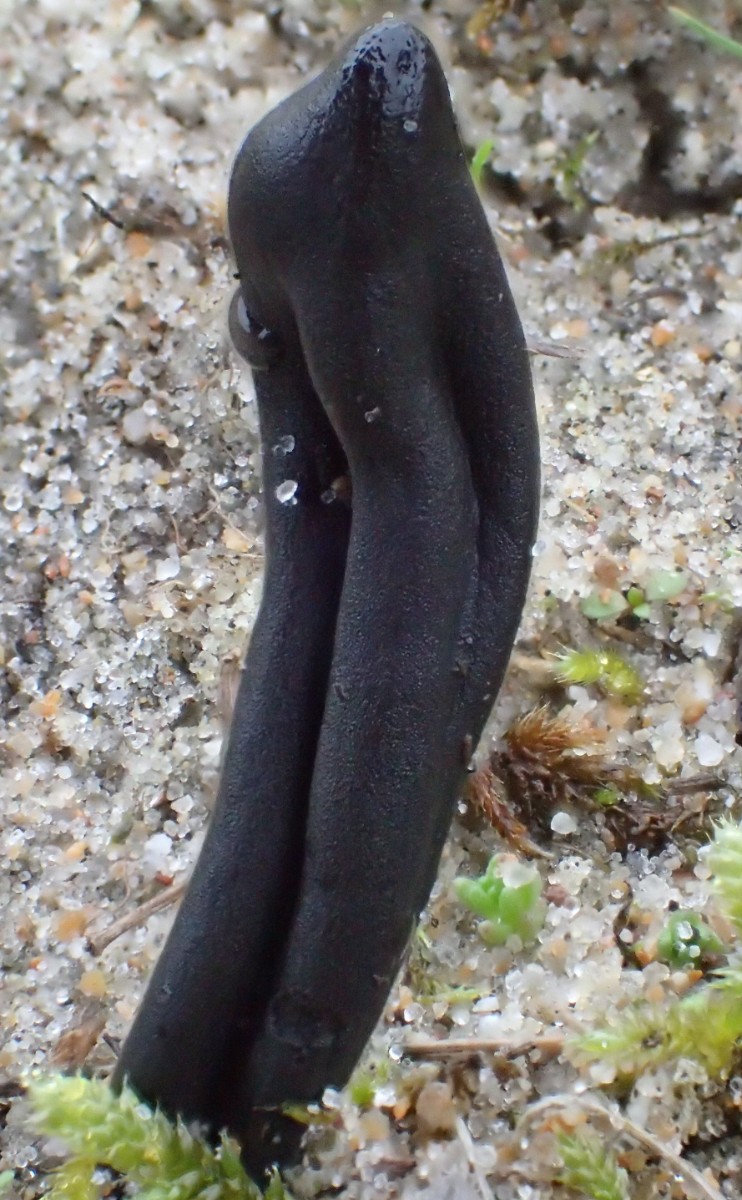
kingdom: Fungi
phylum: Ascomycota
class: Geoglossomycetes
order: Geoglossales
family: Geoglossaceae
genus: Geoglossum
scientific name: Geoglossum cookeianum
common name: bred jordtunge
